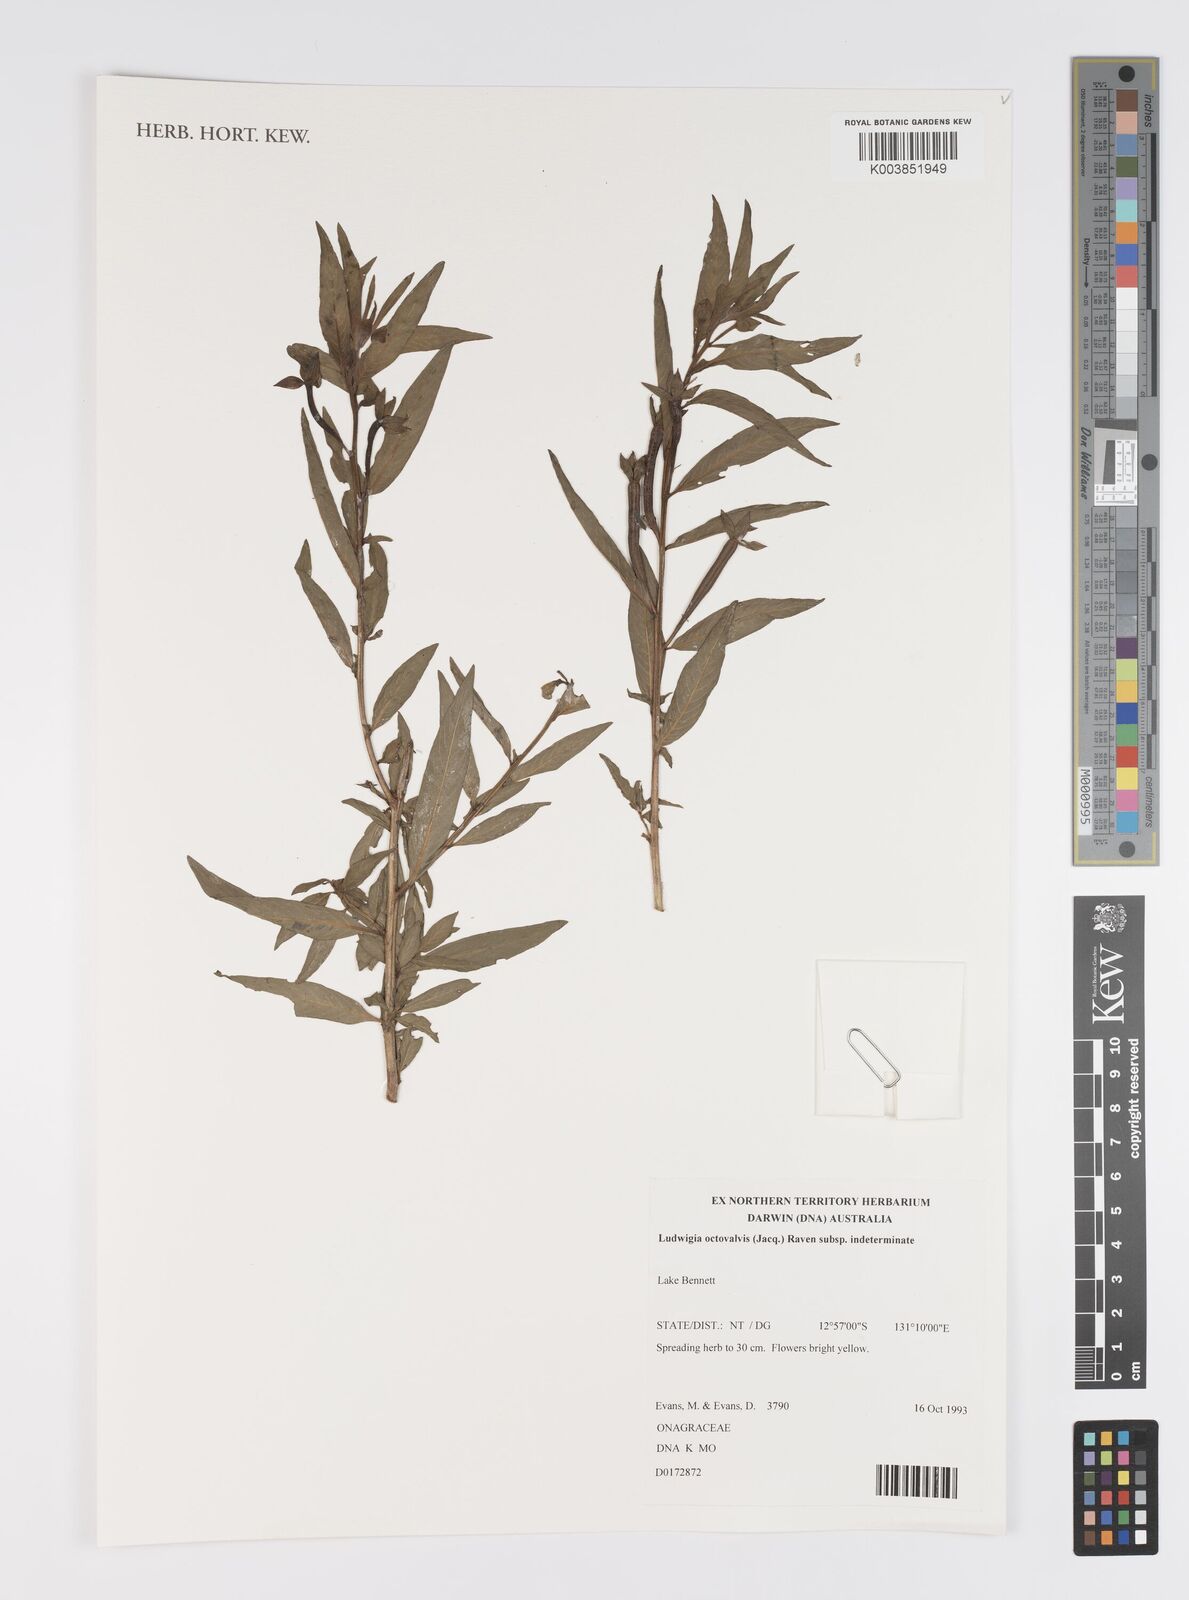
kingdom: Plantae
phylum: Tracheophyta
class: Magnoliopsida
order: Myrtales
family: Onagraceae
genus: Ludwigia
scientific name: Ludwigia octovalvis
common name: Water-primrose
